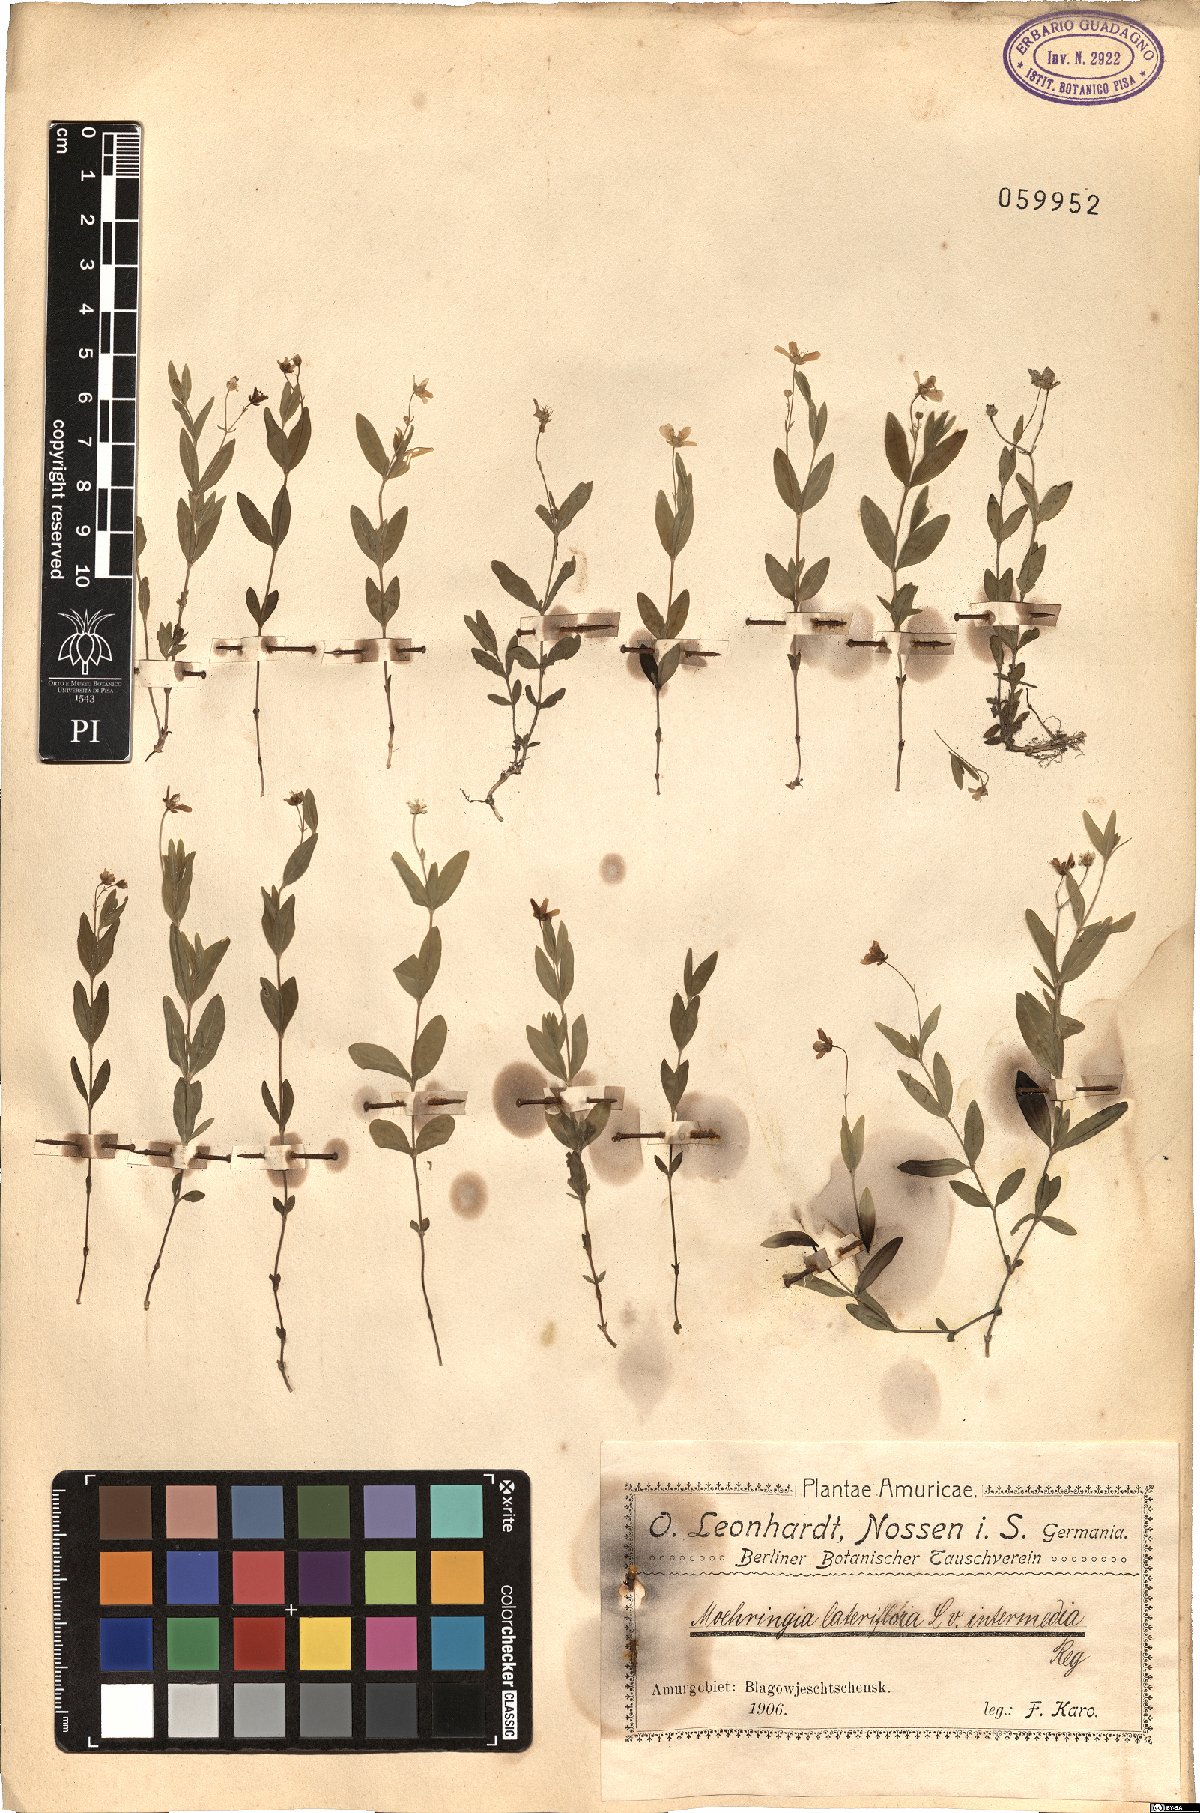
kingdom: Plantae
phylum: Tracheophyta
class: Magnoliopsida
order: Caryophyllales
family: Caryophyllaceae
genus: Moehringia
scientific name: Moehringia lateriflora
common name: Blunt-leaved sandwort
